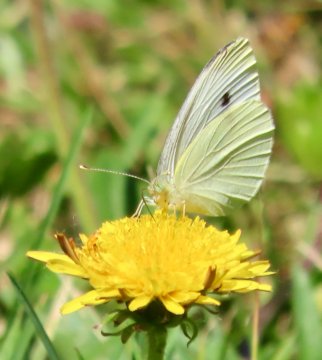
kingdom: Animalia
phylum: Arthropoda
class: Insecta
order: Lepidoptera
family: Pieridae
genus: Pieris
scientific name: Pieris rapae
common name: Cabbage White
